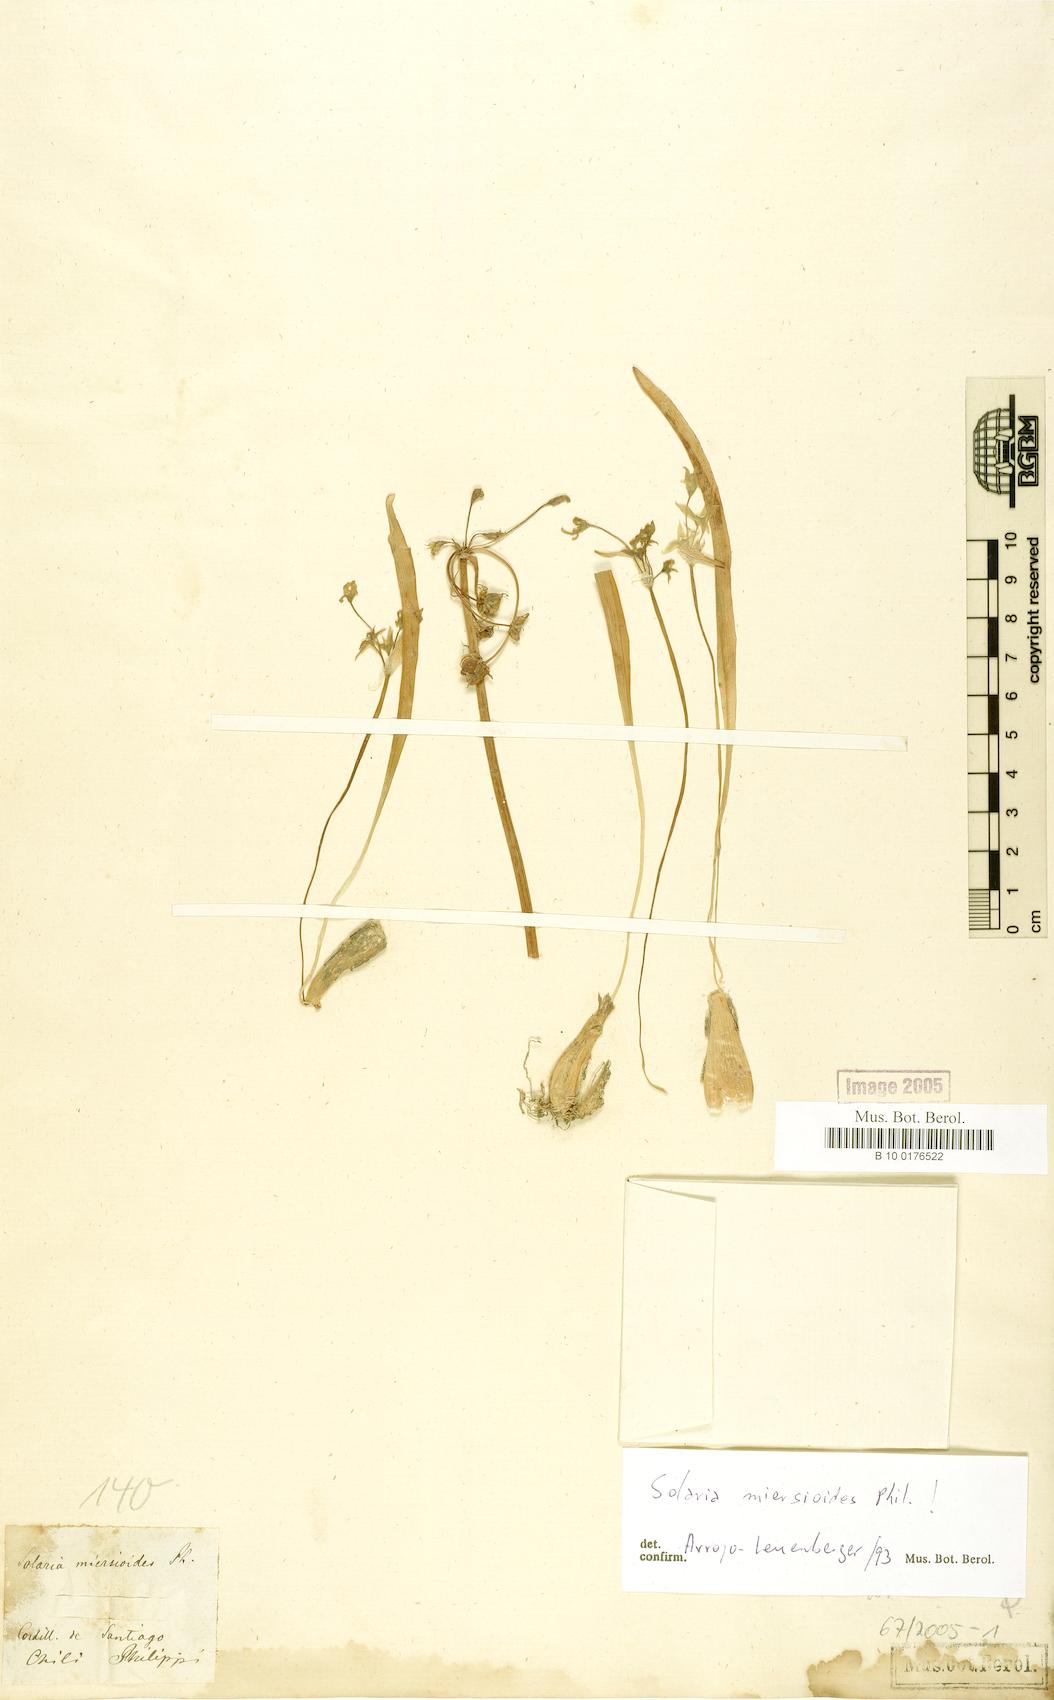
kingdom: Plantae
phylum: Tracheophyta
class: Liliopsida
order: Asparagales
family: Amaryllidaceae
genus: Gilliesia
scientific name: Gilliesia miersioides
